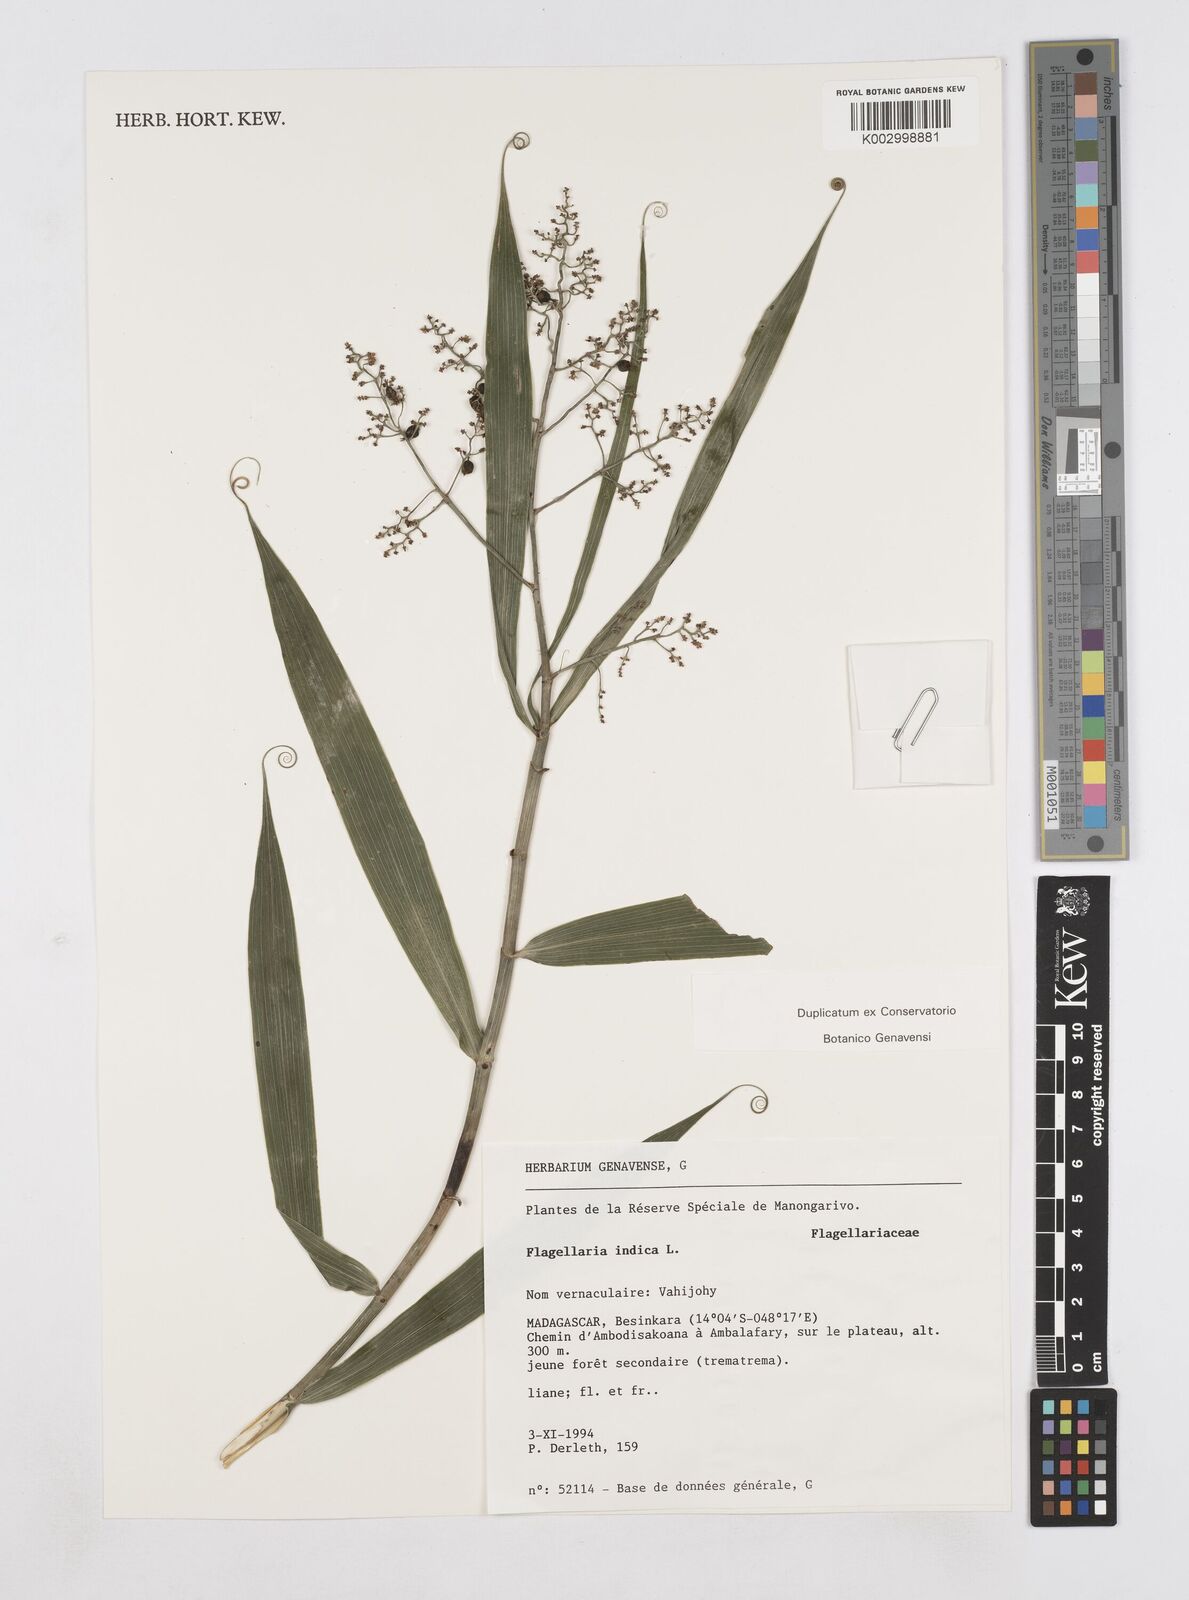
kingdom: Plantae
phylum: Tracheophyta
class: Liliopsida
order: Poales
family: Flagellariaceae
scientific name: Flagellariaceae
